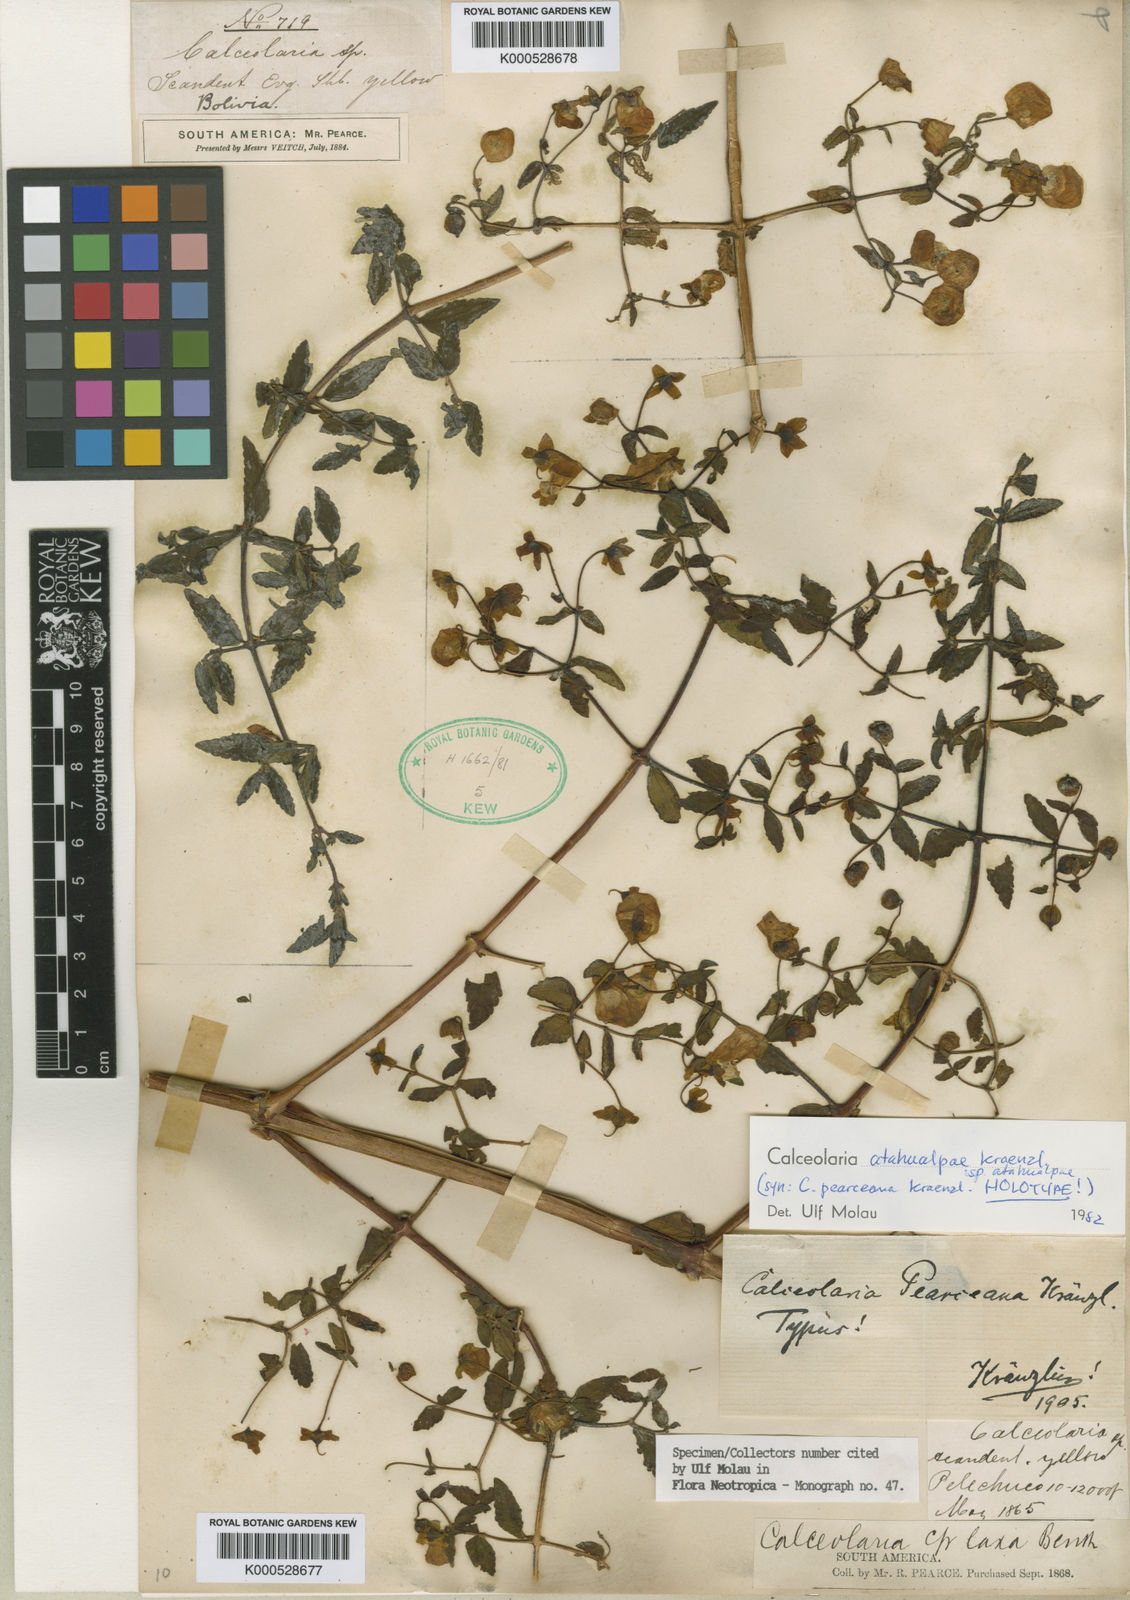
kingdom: Plantae
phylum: Tracheophyta
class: Magnoliopsida
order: Lamiales
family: Calceolariaceae
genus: Calceolaria
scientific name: Calceolaria atahualpae
